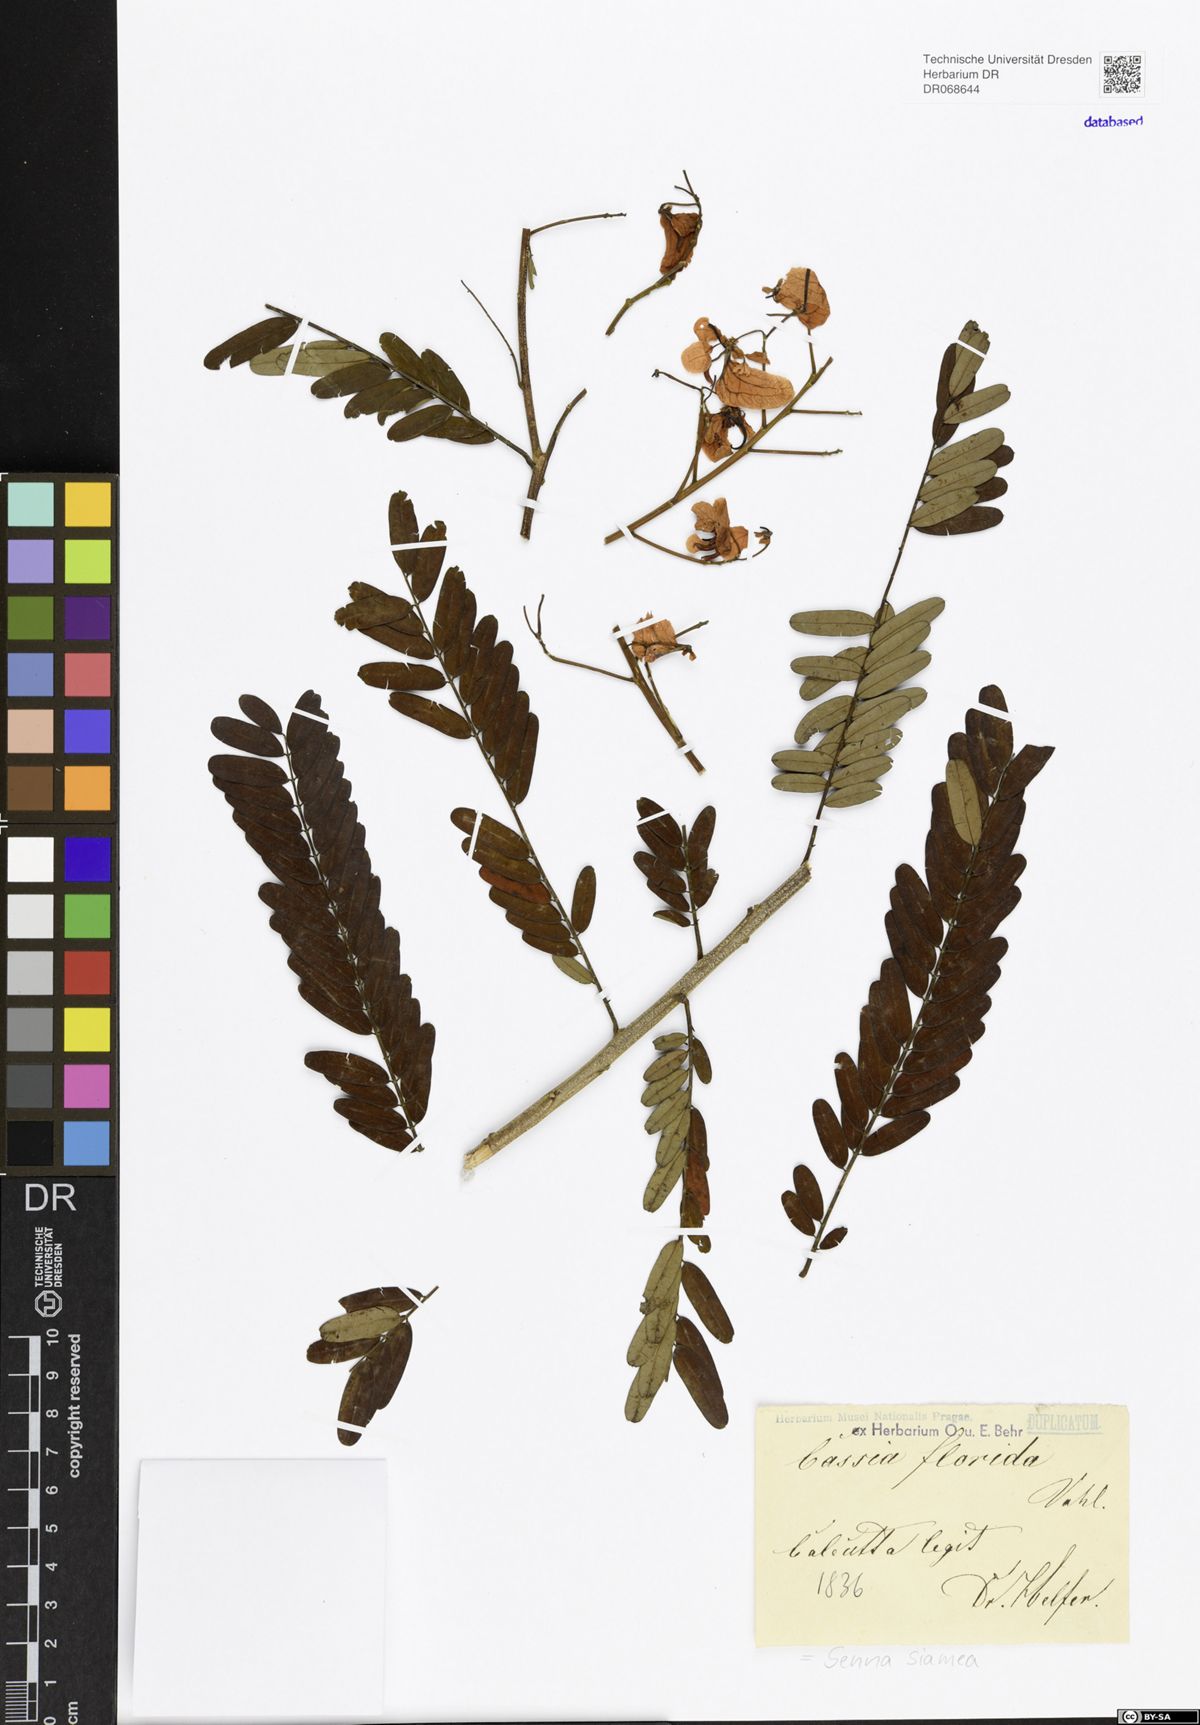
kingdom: Plantae
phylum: Tracheophyta
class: Magnoliopsida
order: Fabales
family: Fabaceae
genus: Senna
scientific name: Senna siamea
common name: Siamese cassia
